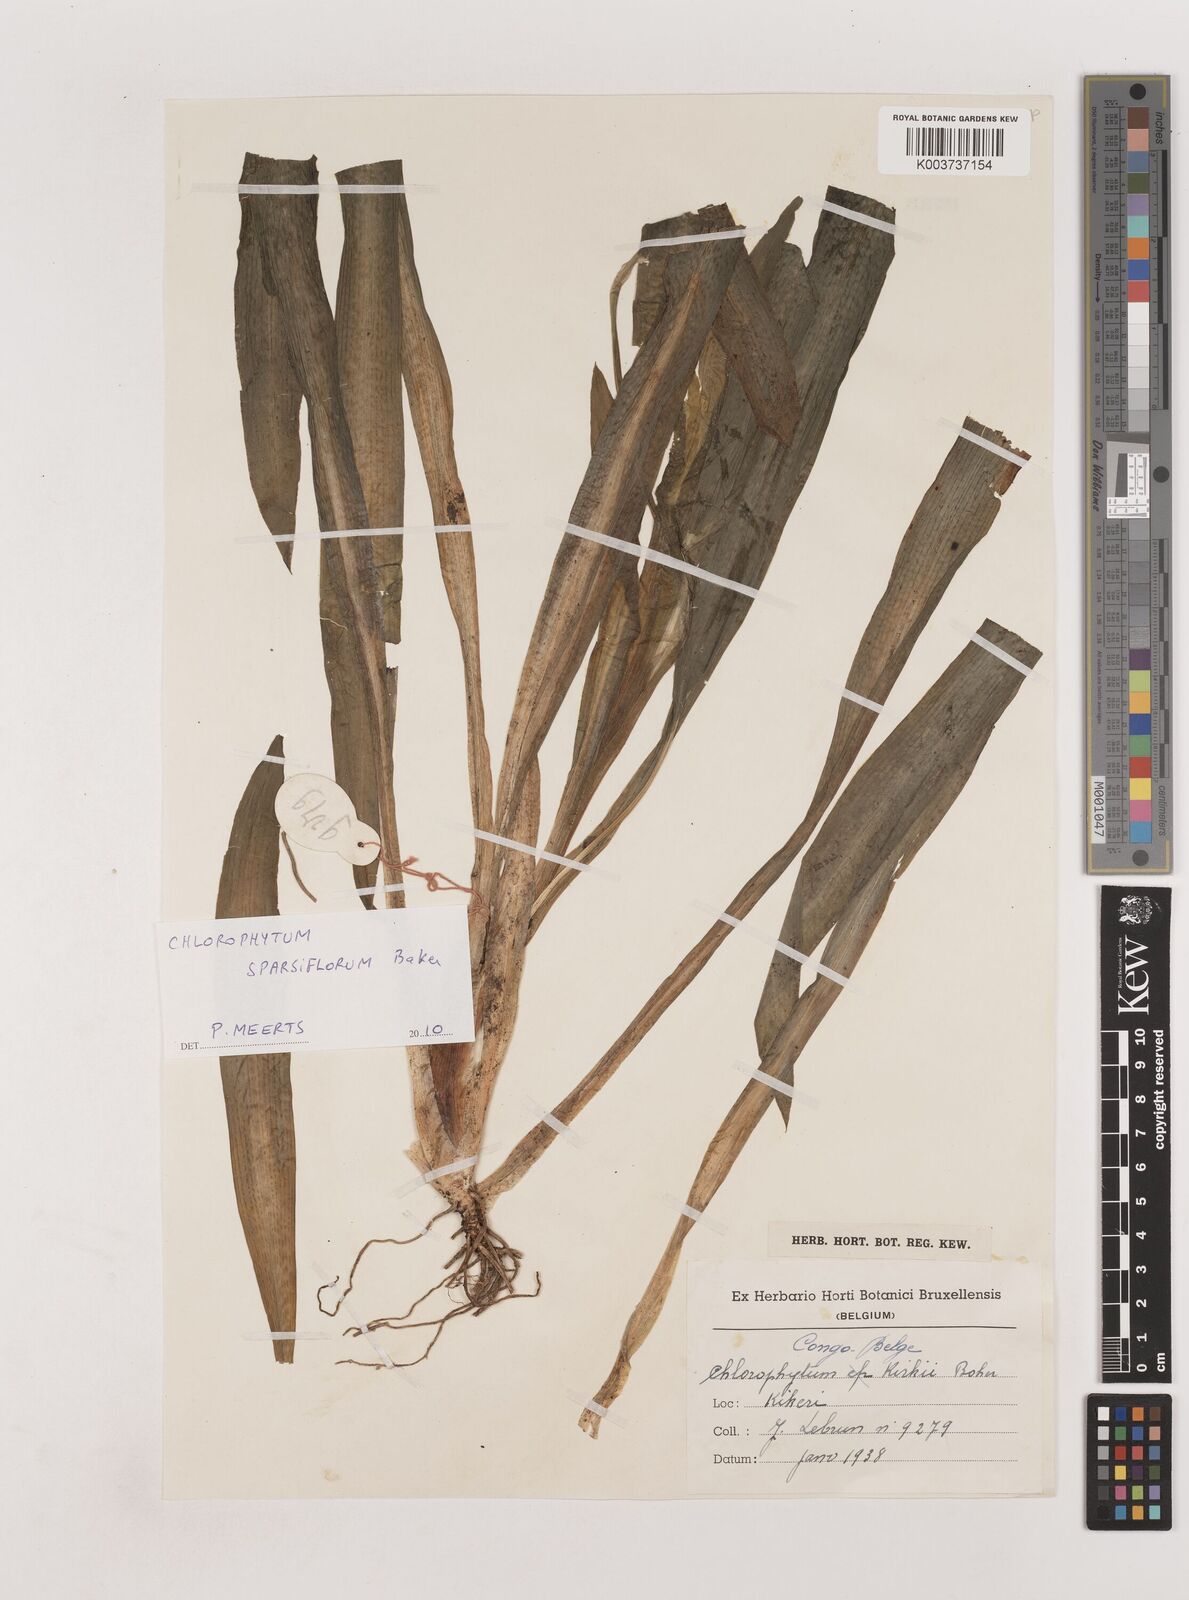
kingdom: Plantae
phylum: Tracheophyta
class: Liliopsida
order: Asparagales
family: Asparagaceae
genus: Chlorophytum
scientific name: Chlorophytum sparsiflorum
